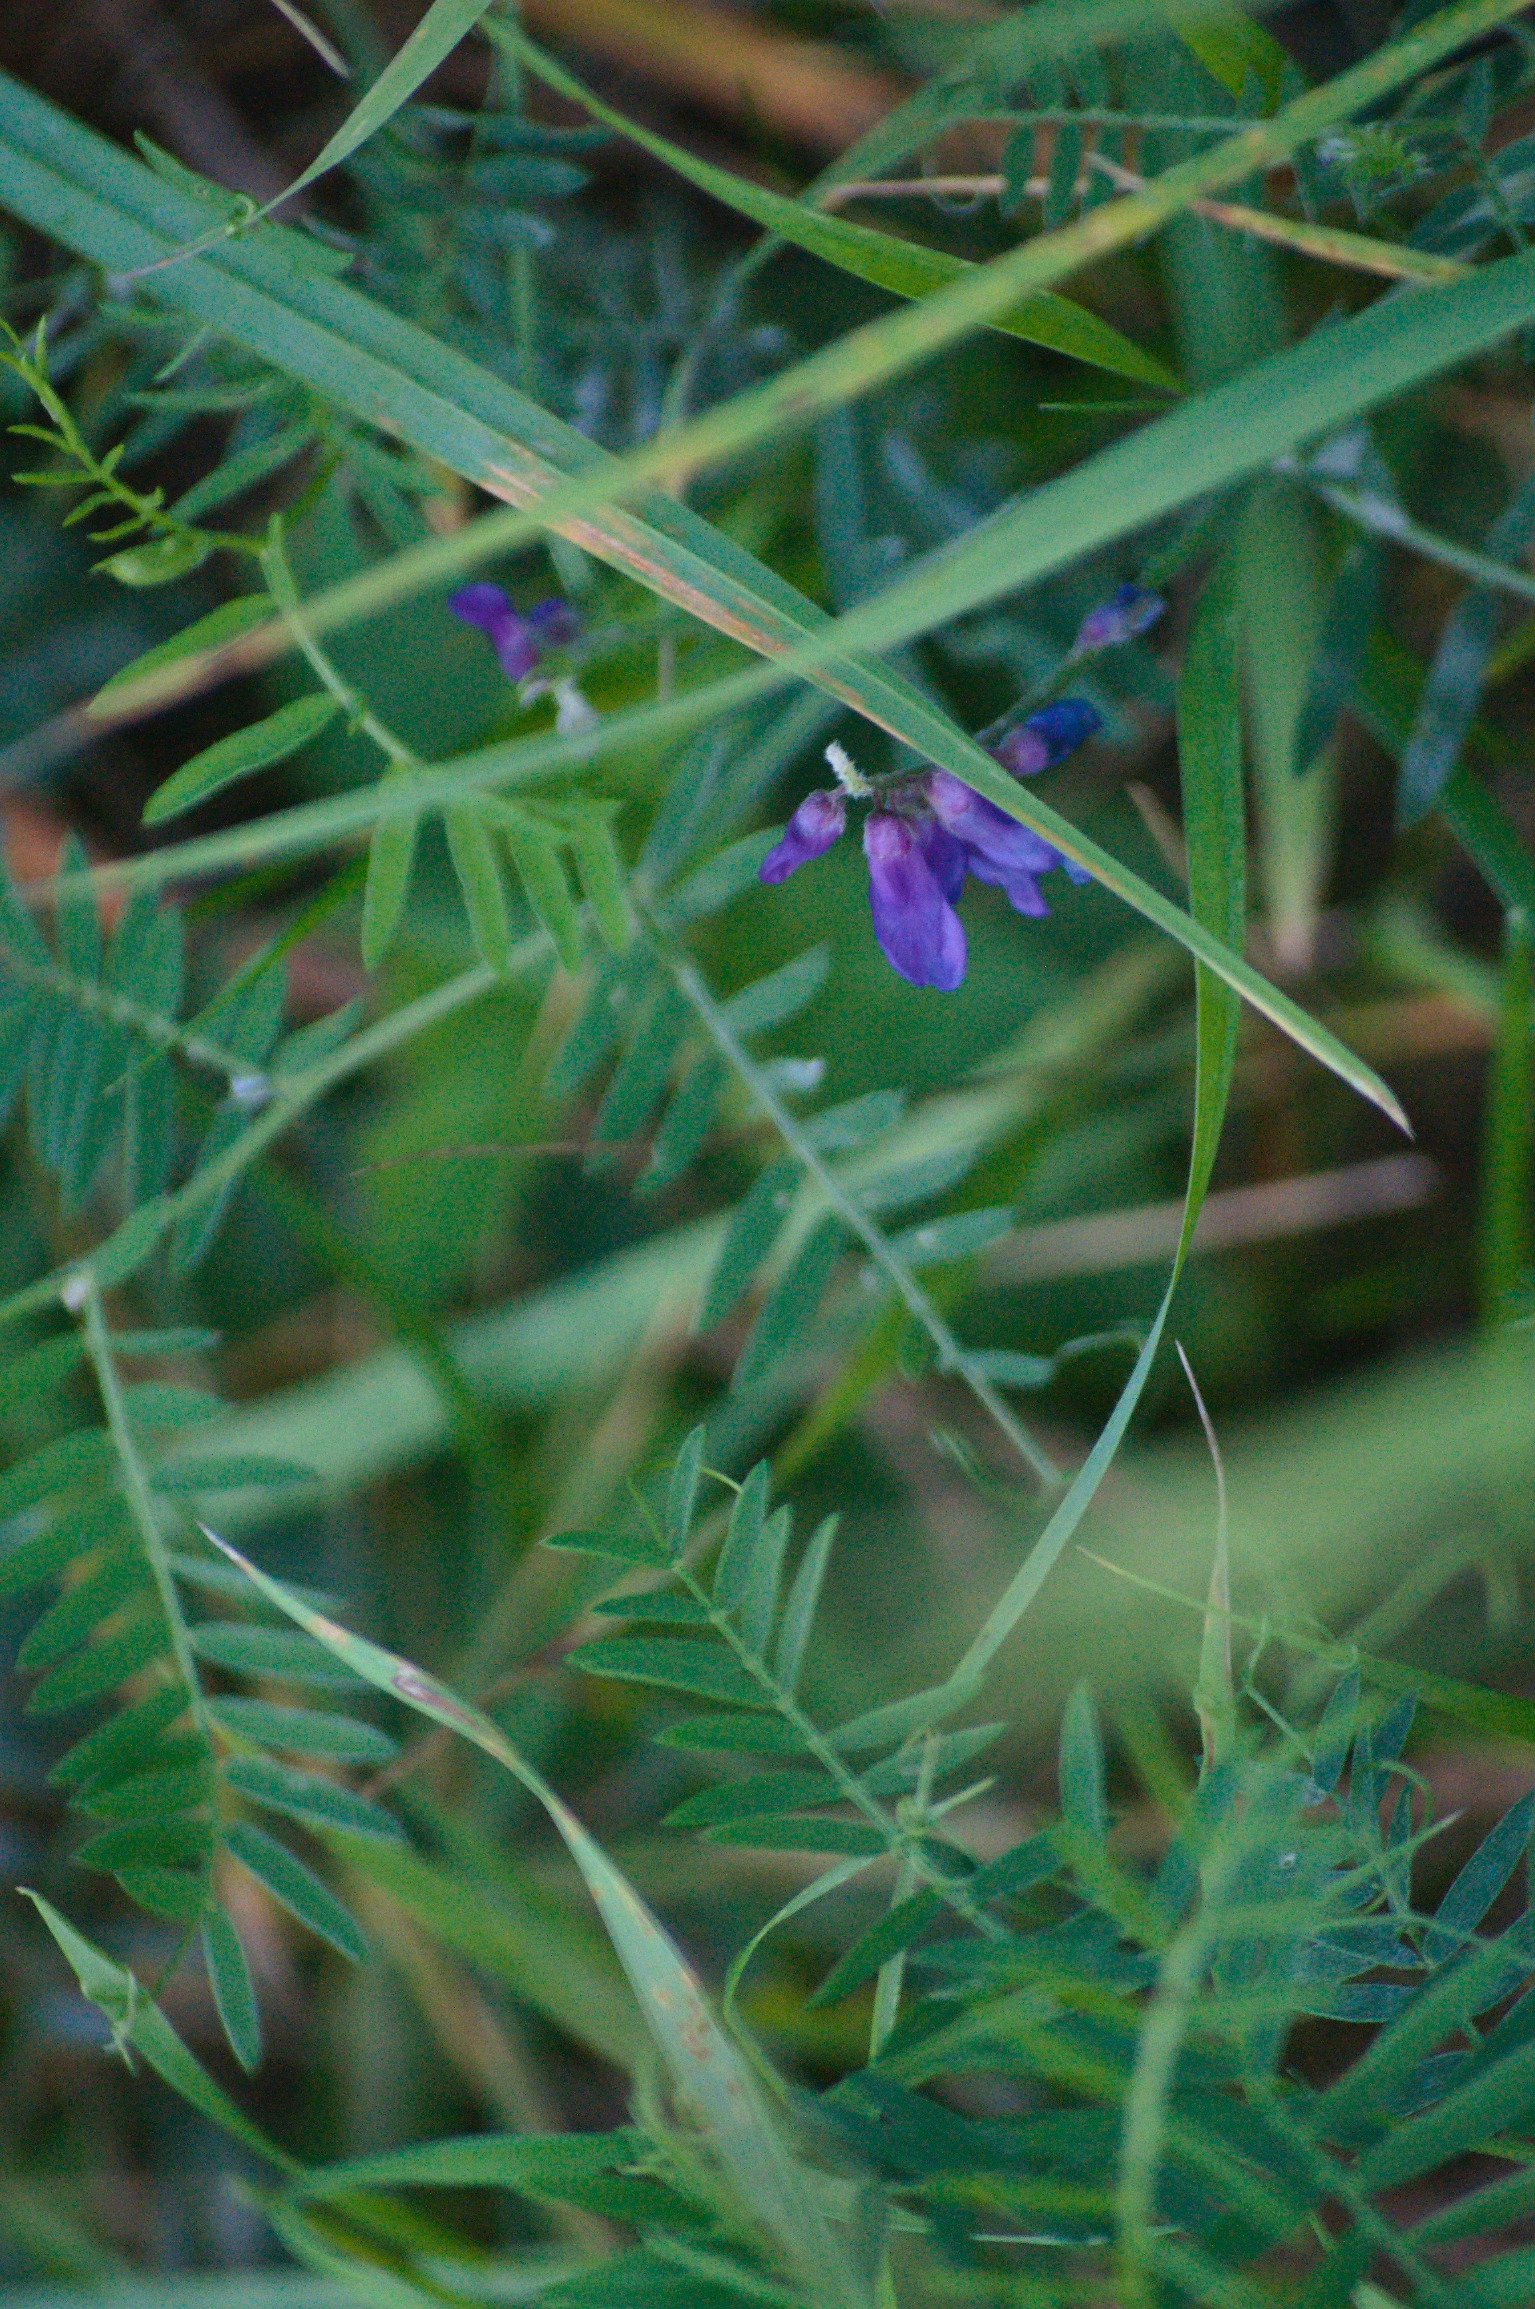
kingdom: Plantae
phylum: Tracheophyta
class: Magnoliopsida
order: Fabales
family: Fabaceae
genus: Vicia
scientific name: Vicia cracca
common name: Muse-vikke
